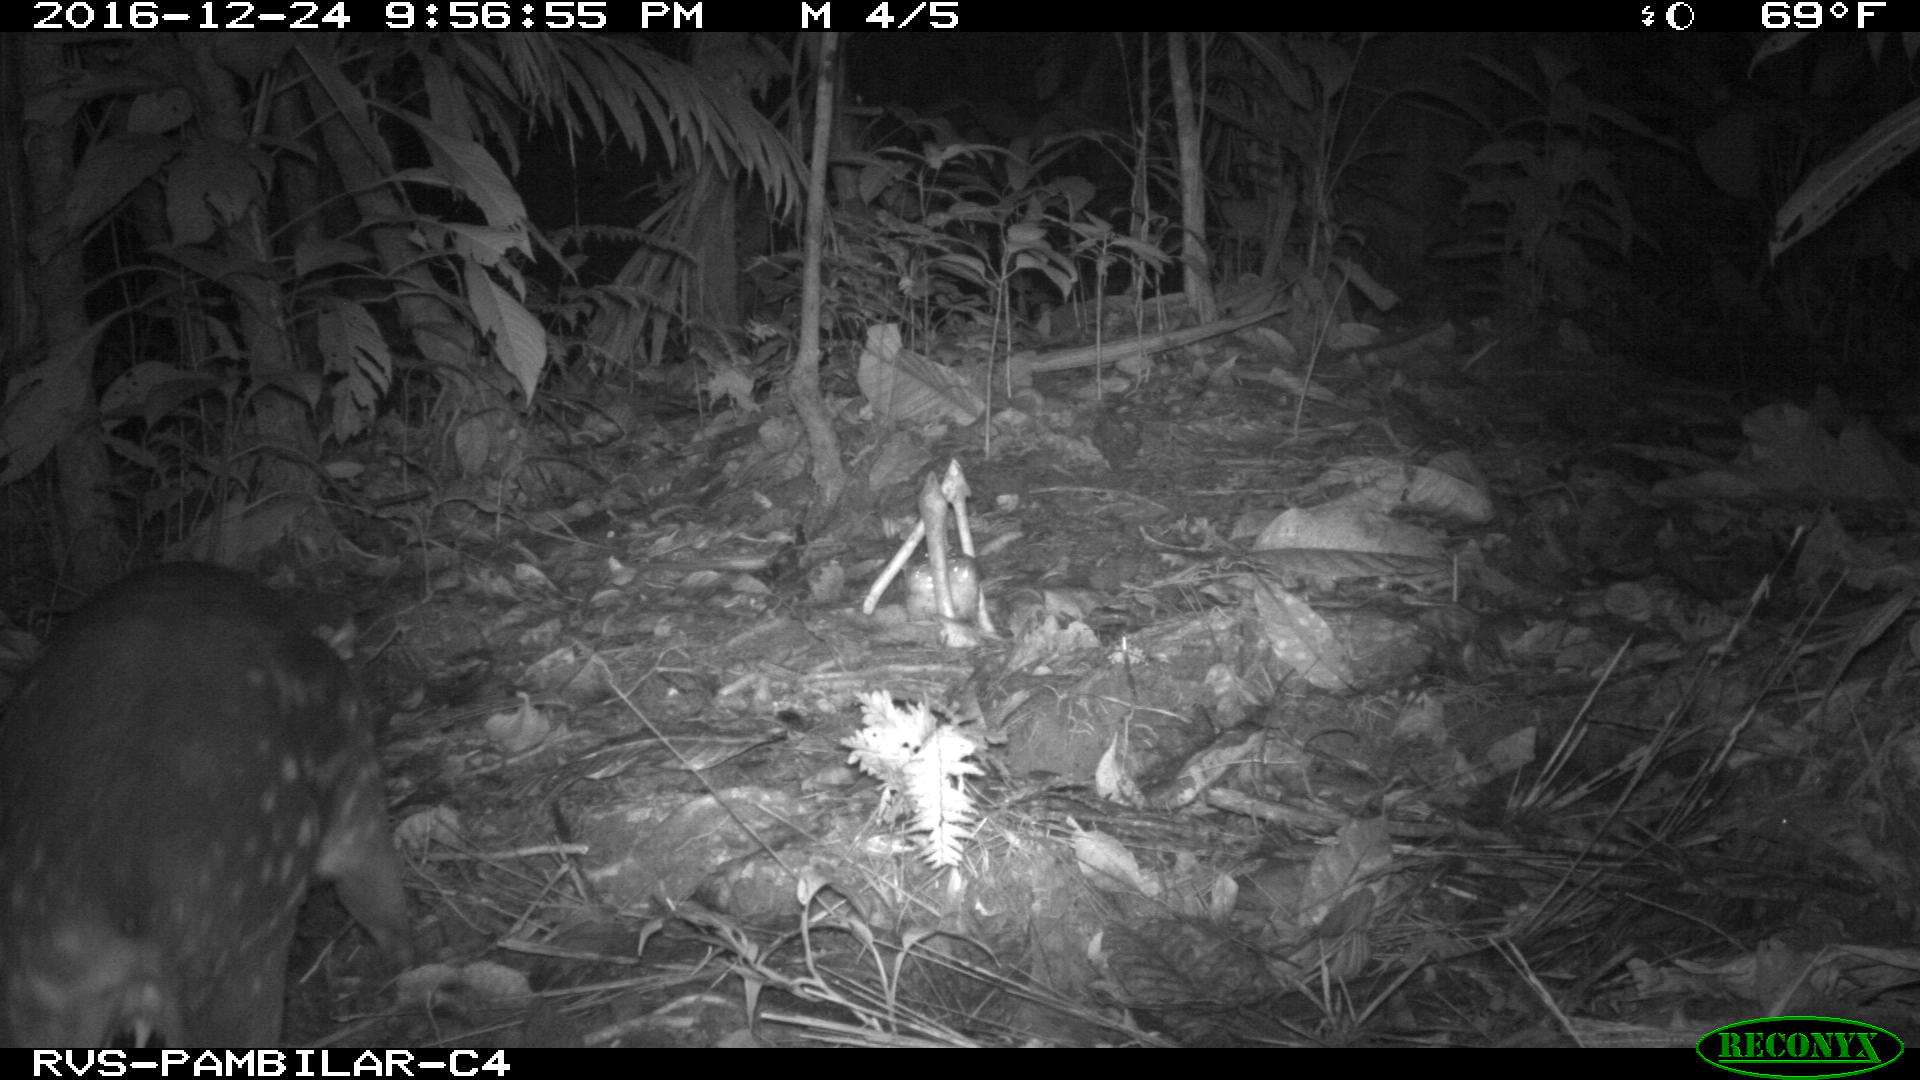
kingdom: Animalia
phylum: Chordata
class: Mammalia
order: Rodentia
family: Cuniculidae
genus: Cuniculus
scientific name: Cuniculus paca
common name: Lowland paca
